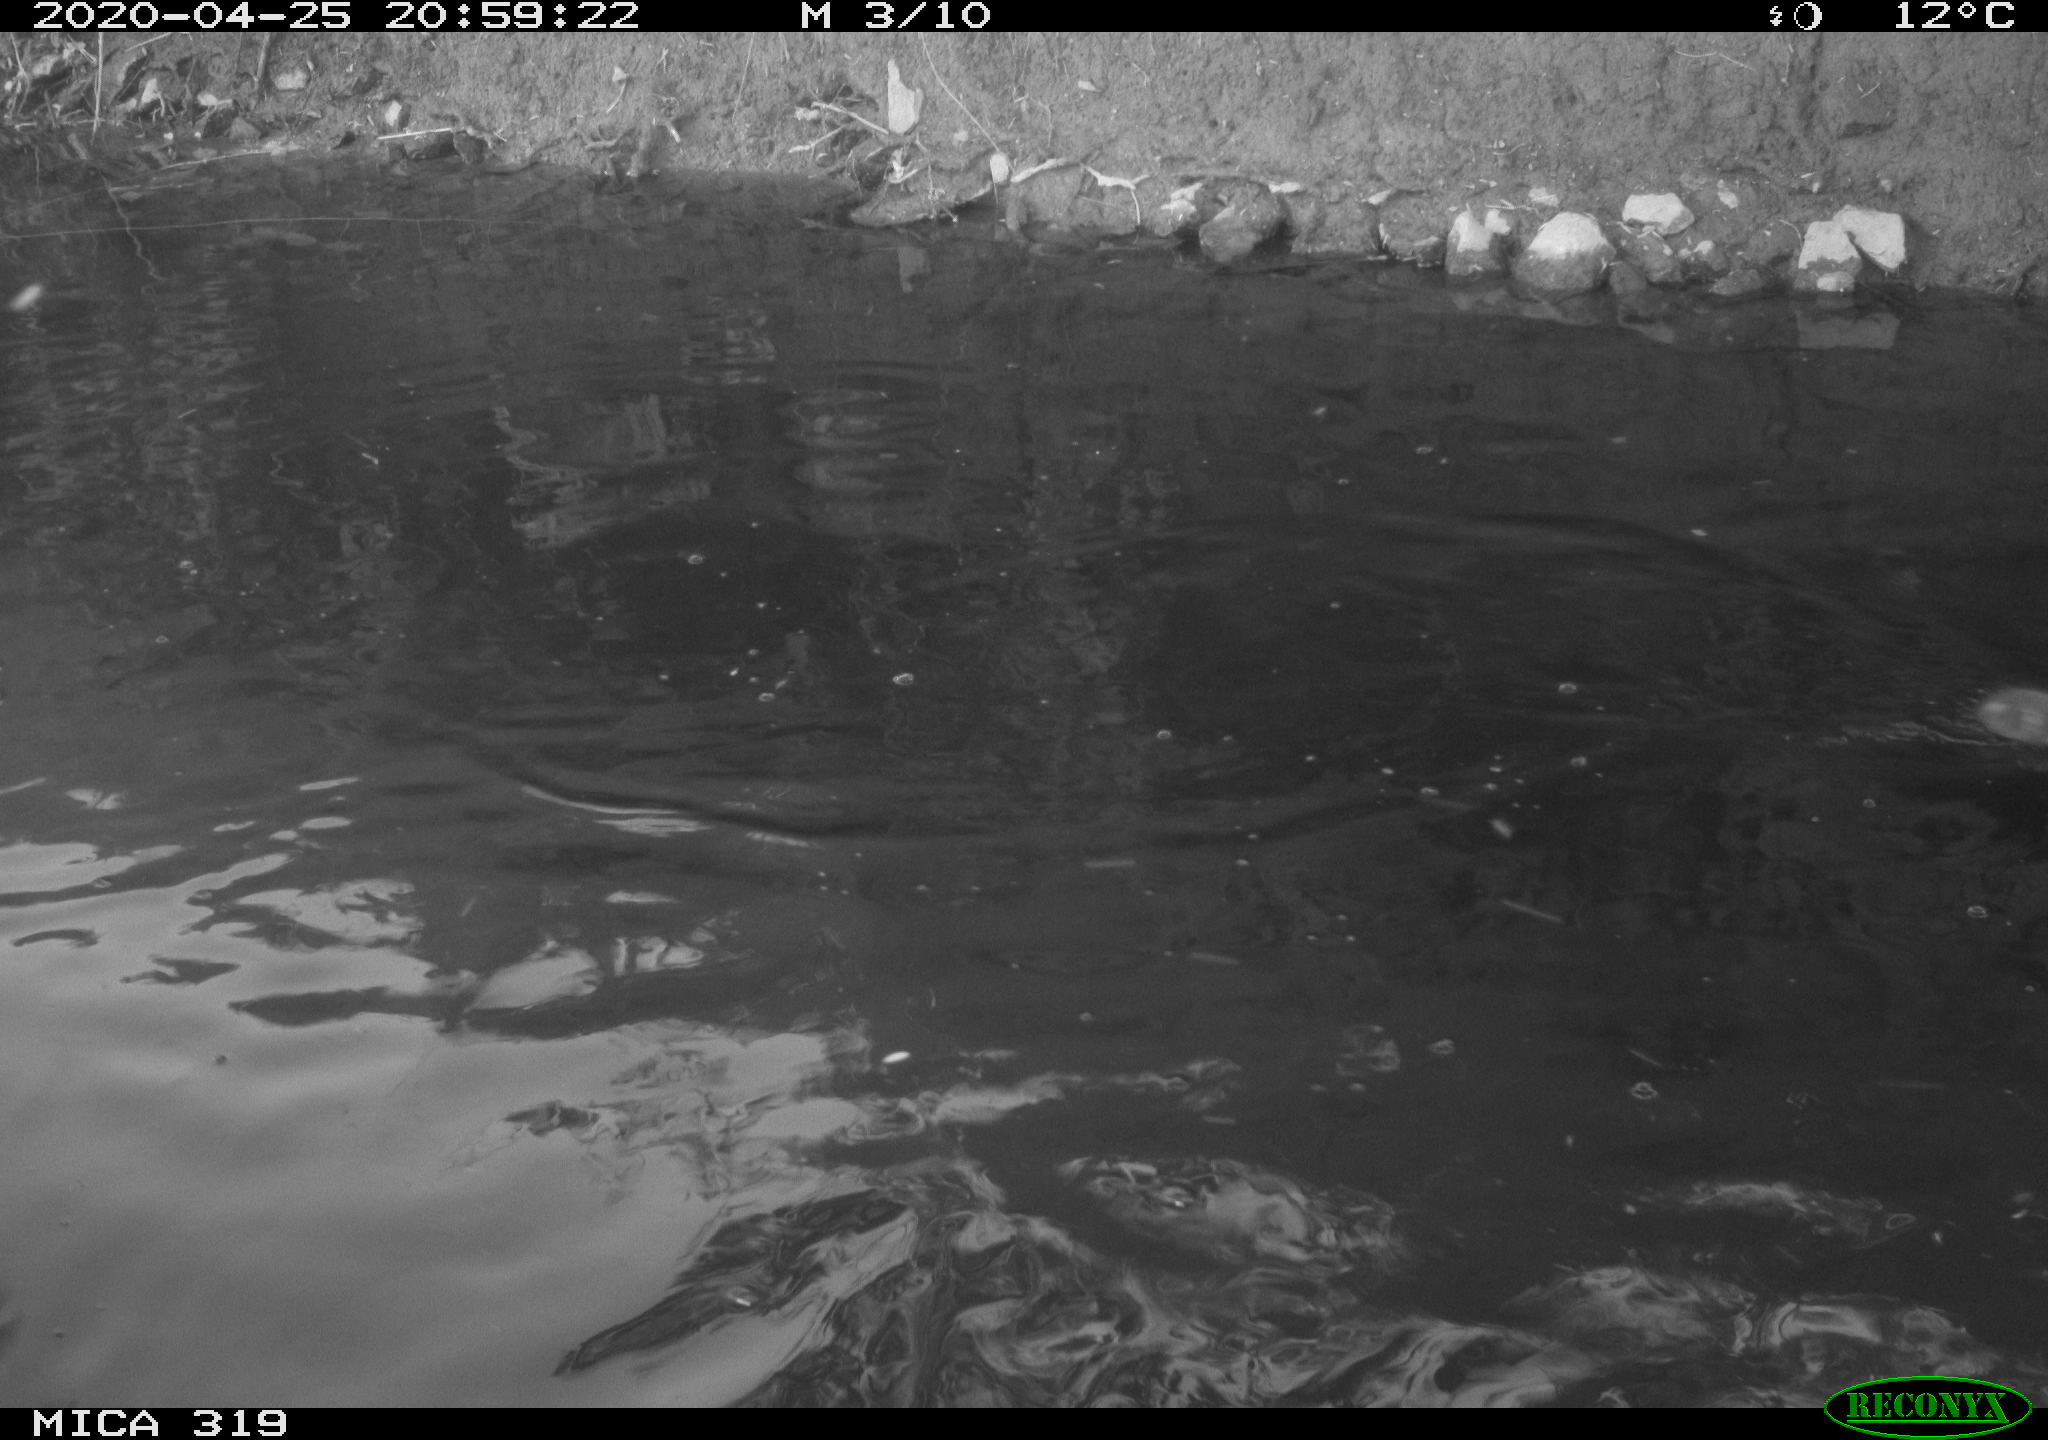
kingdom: Animalia
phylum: Chordata
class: Aves
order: Anseriformes
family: Anatidae
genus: Anas
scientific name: Anas platyrhynchos
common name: Mallard
